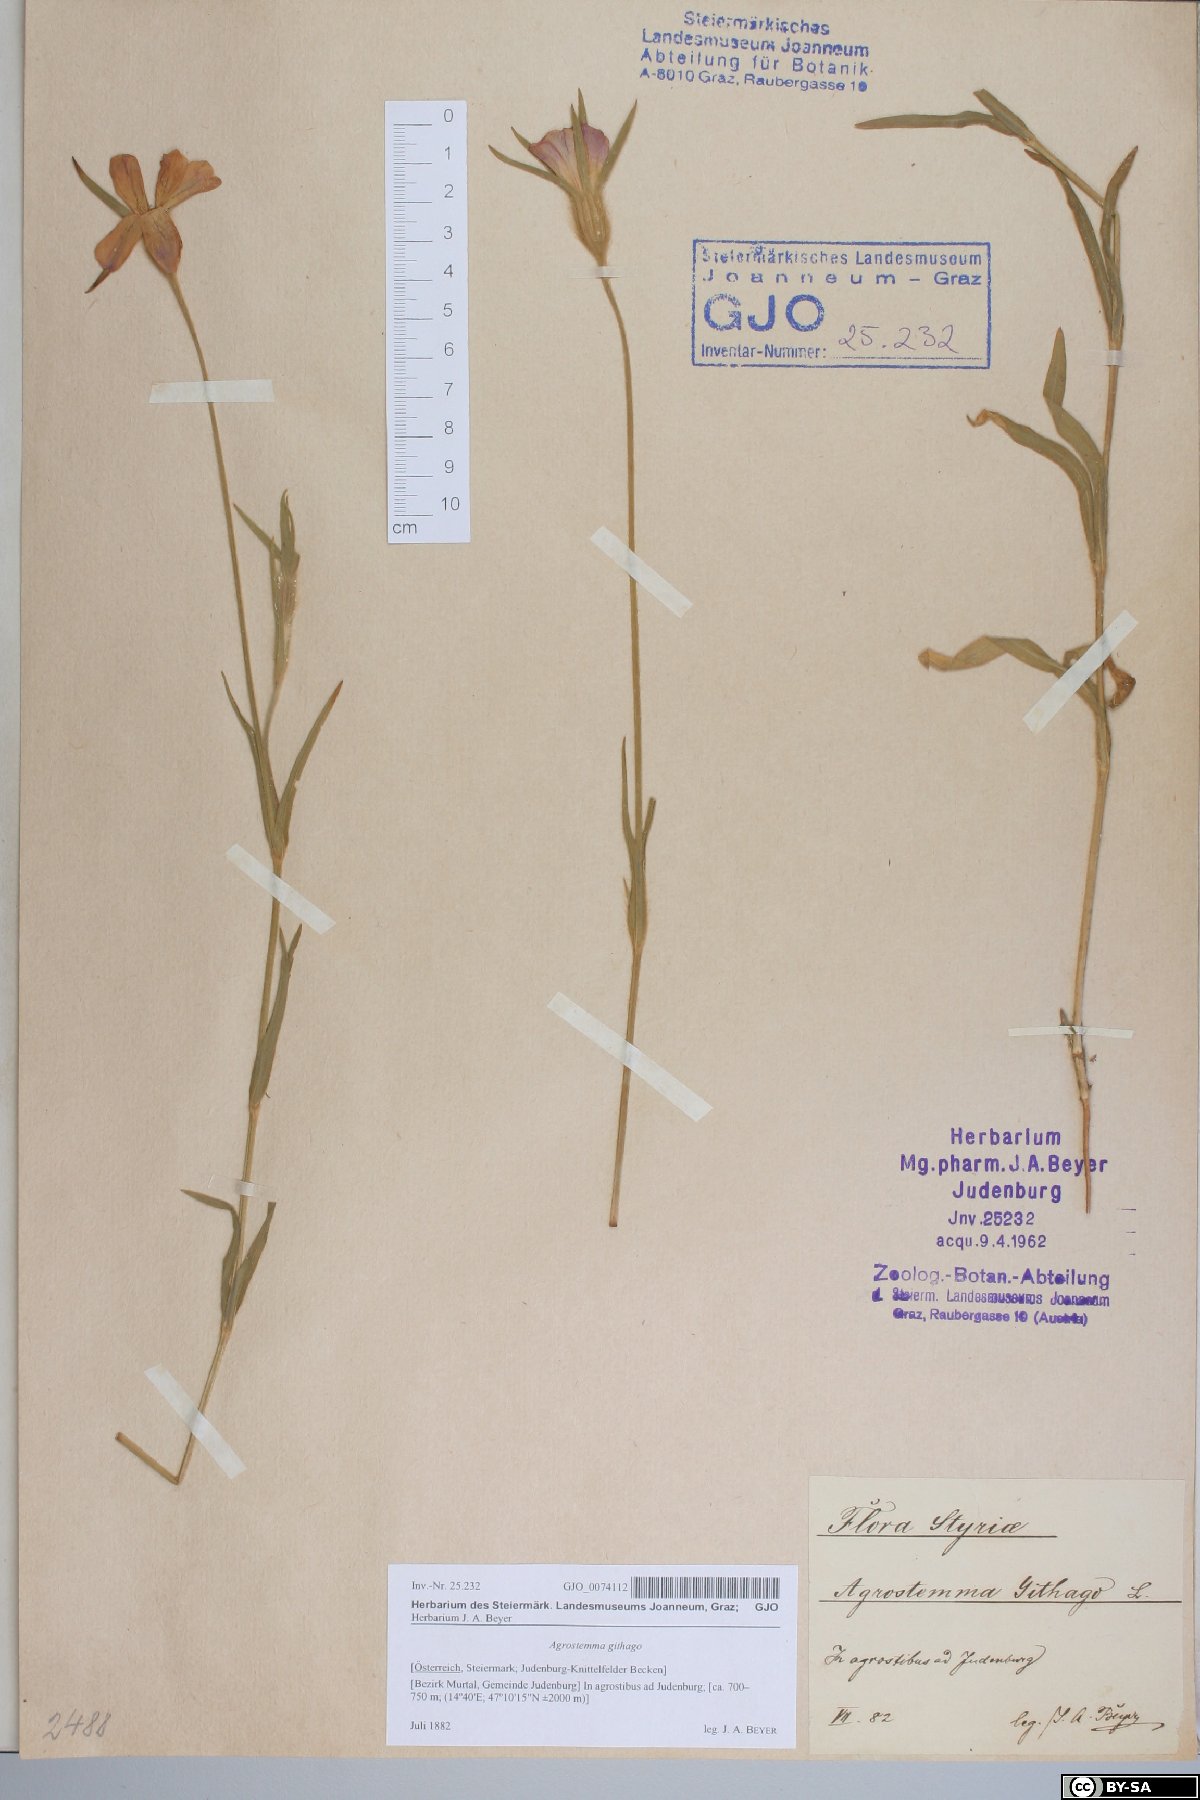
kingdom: Plantae
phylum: Tracheophyta
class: Magnoliopsida
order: Caryophyllales
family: Caryophyllaceae
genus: Agrostemma
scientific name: Agrostemma githago
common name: Common corncockle
